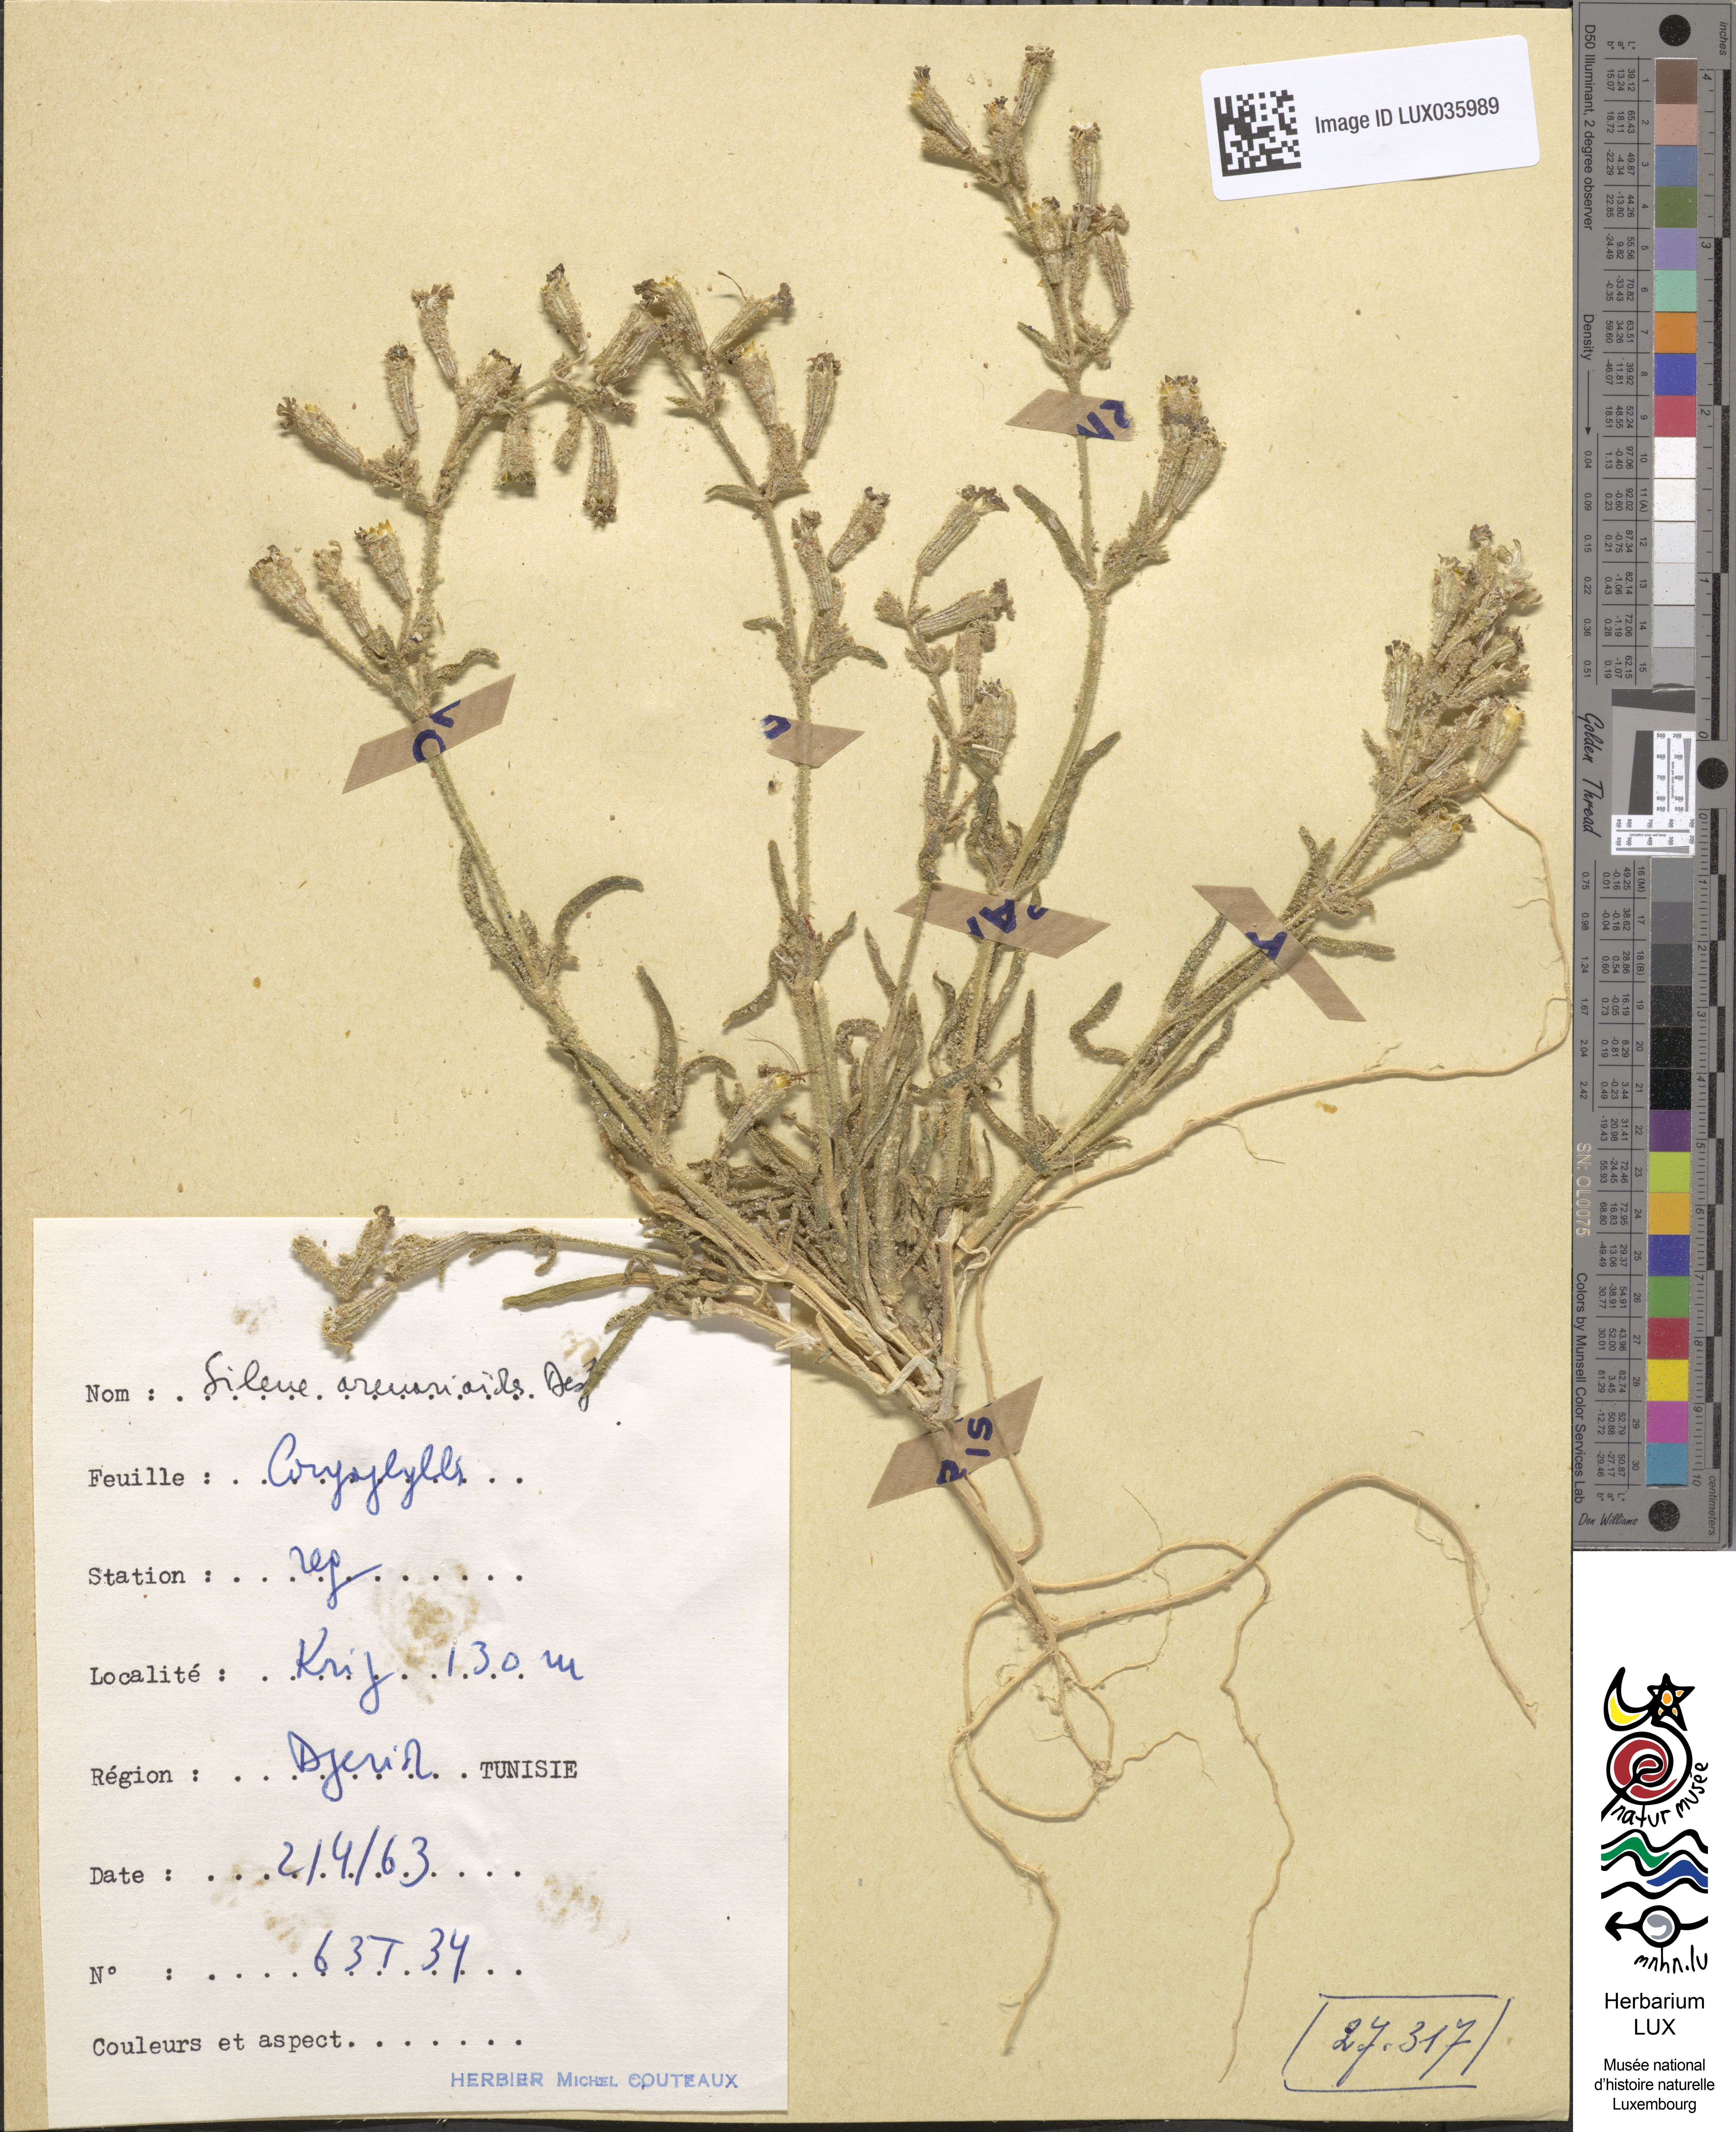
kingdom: Plantae
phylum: Tracheophyta
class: Magnoliopsida
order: Caryophyllales
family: Caryophyllaceae
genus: Silene
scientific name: Silene arenarioides
